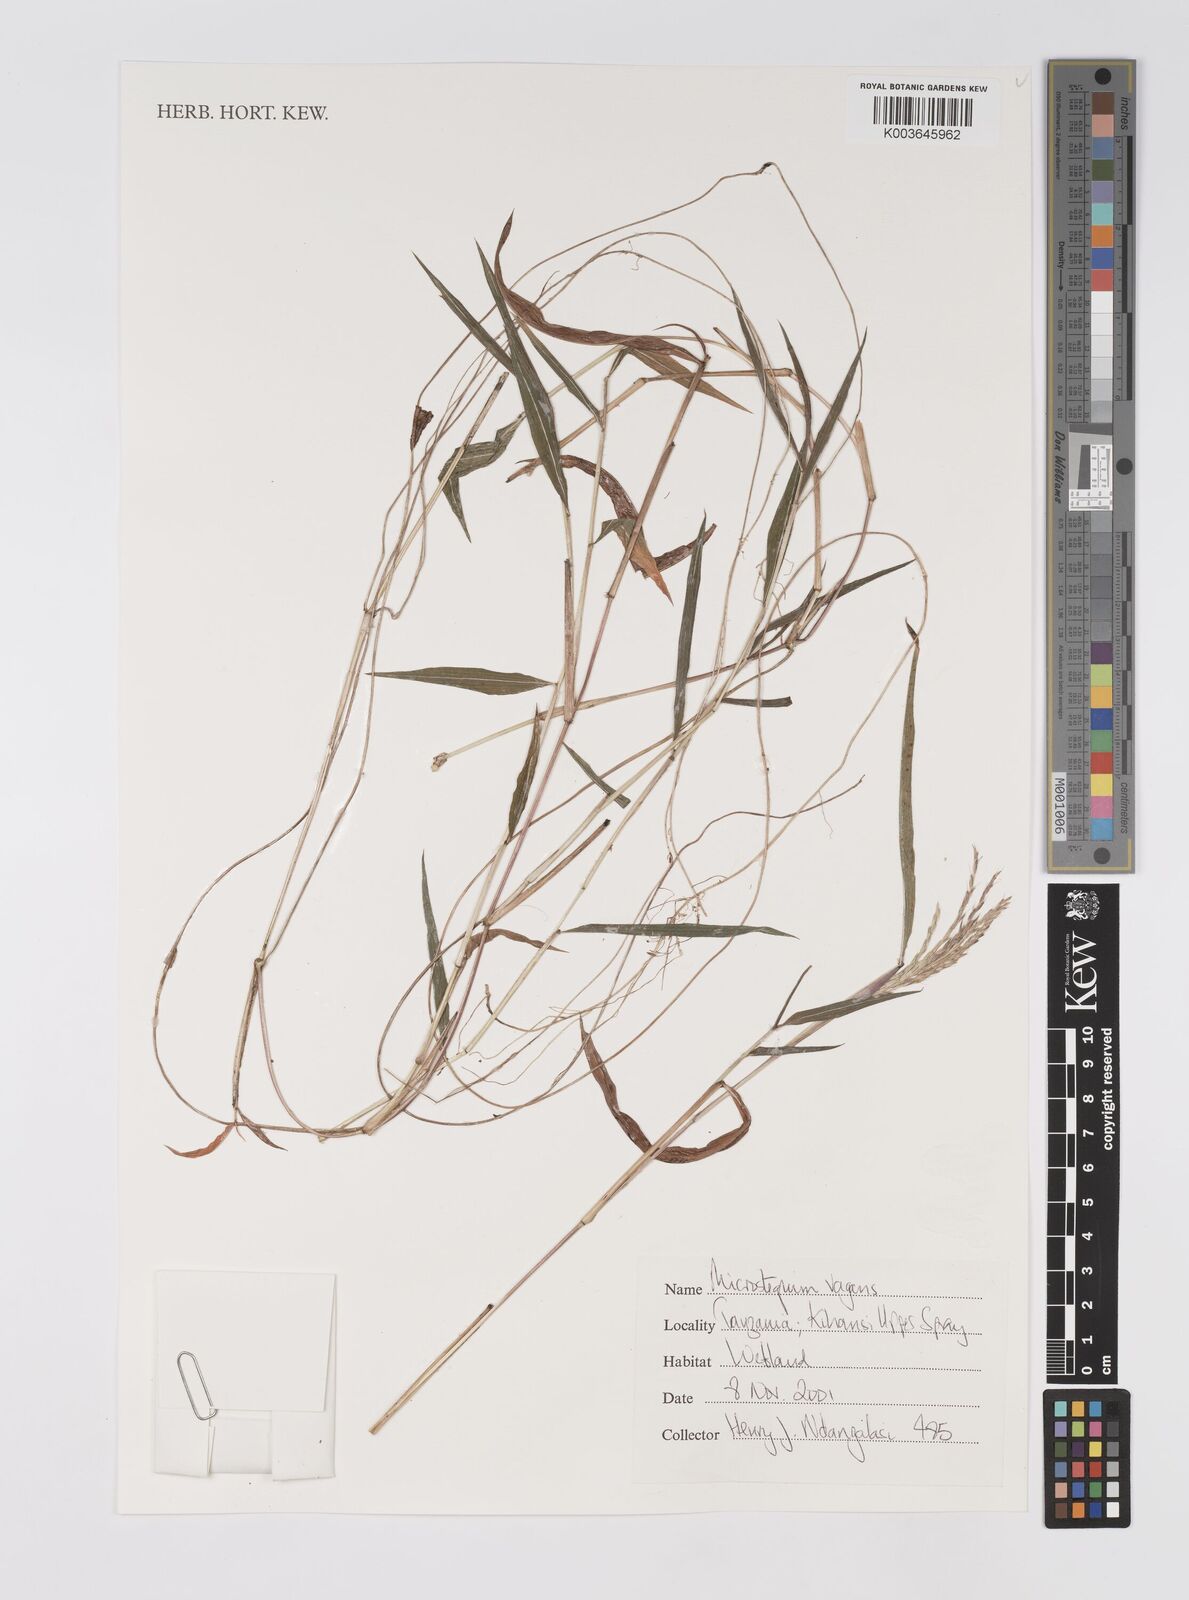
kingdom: Plantae
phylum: Tracheophyta
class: Liliopsida
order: Poales
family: Poaceae
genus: Microstegium
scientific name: Microstegium fasciculatum
